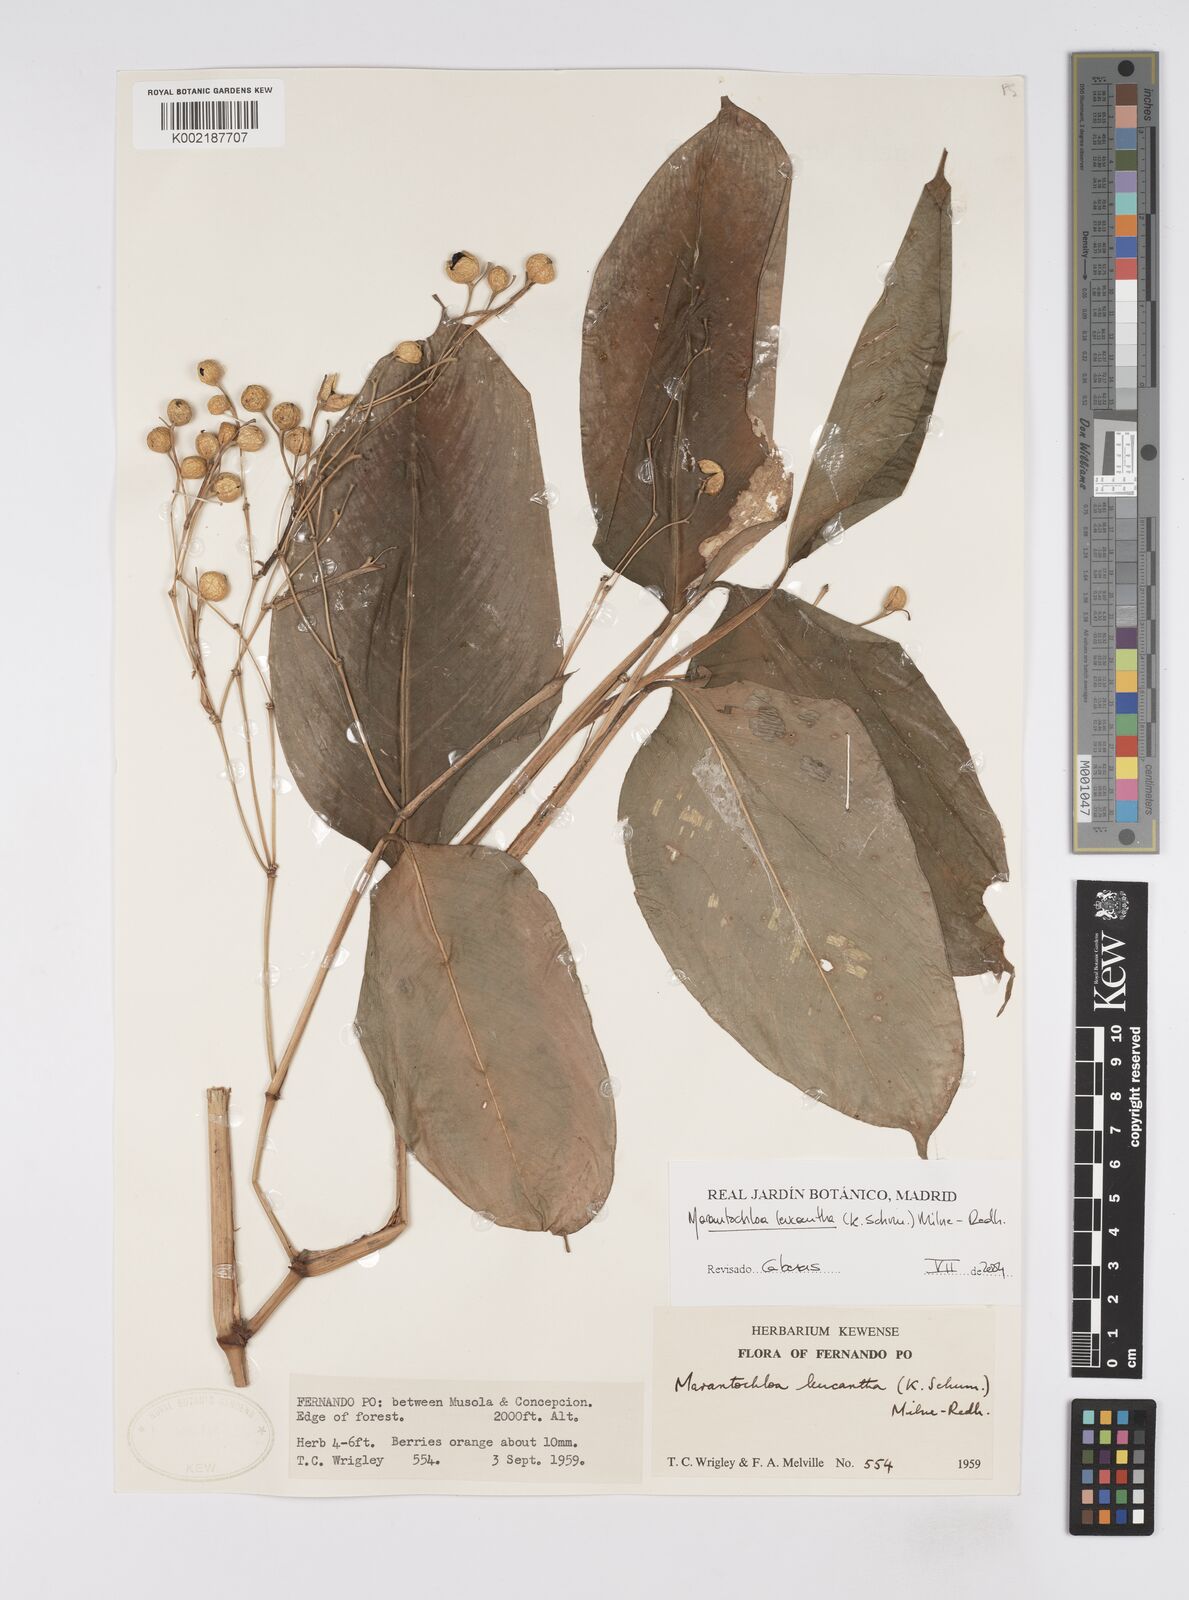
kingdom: Plantae
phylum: Tracheophyta
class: Liliopsida
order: Zingiberales
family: Marantaceae
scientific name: Marantaceae
